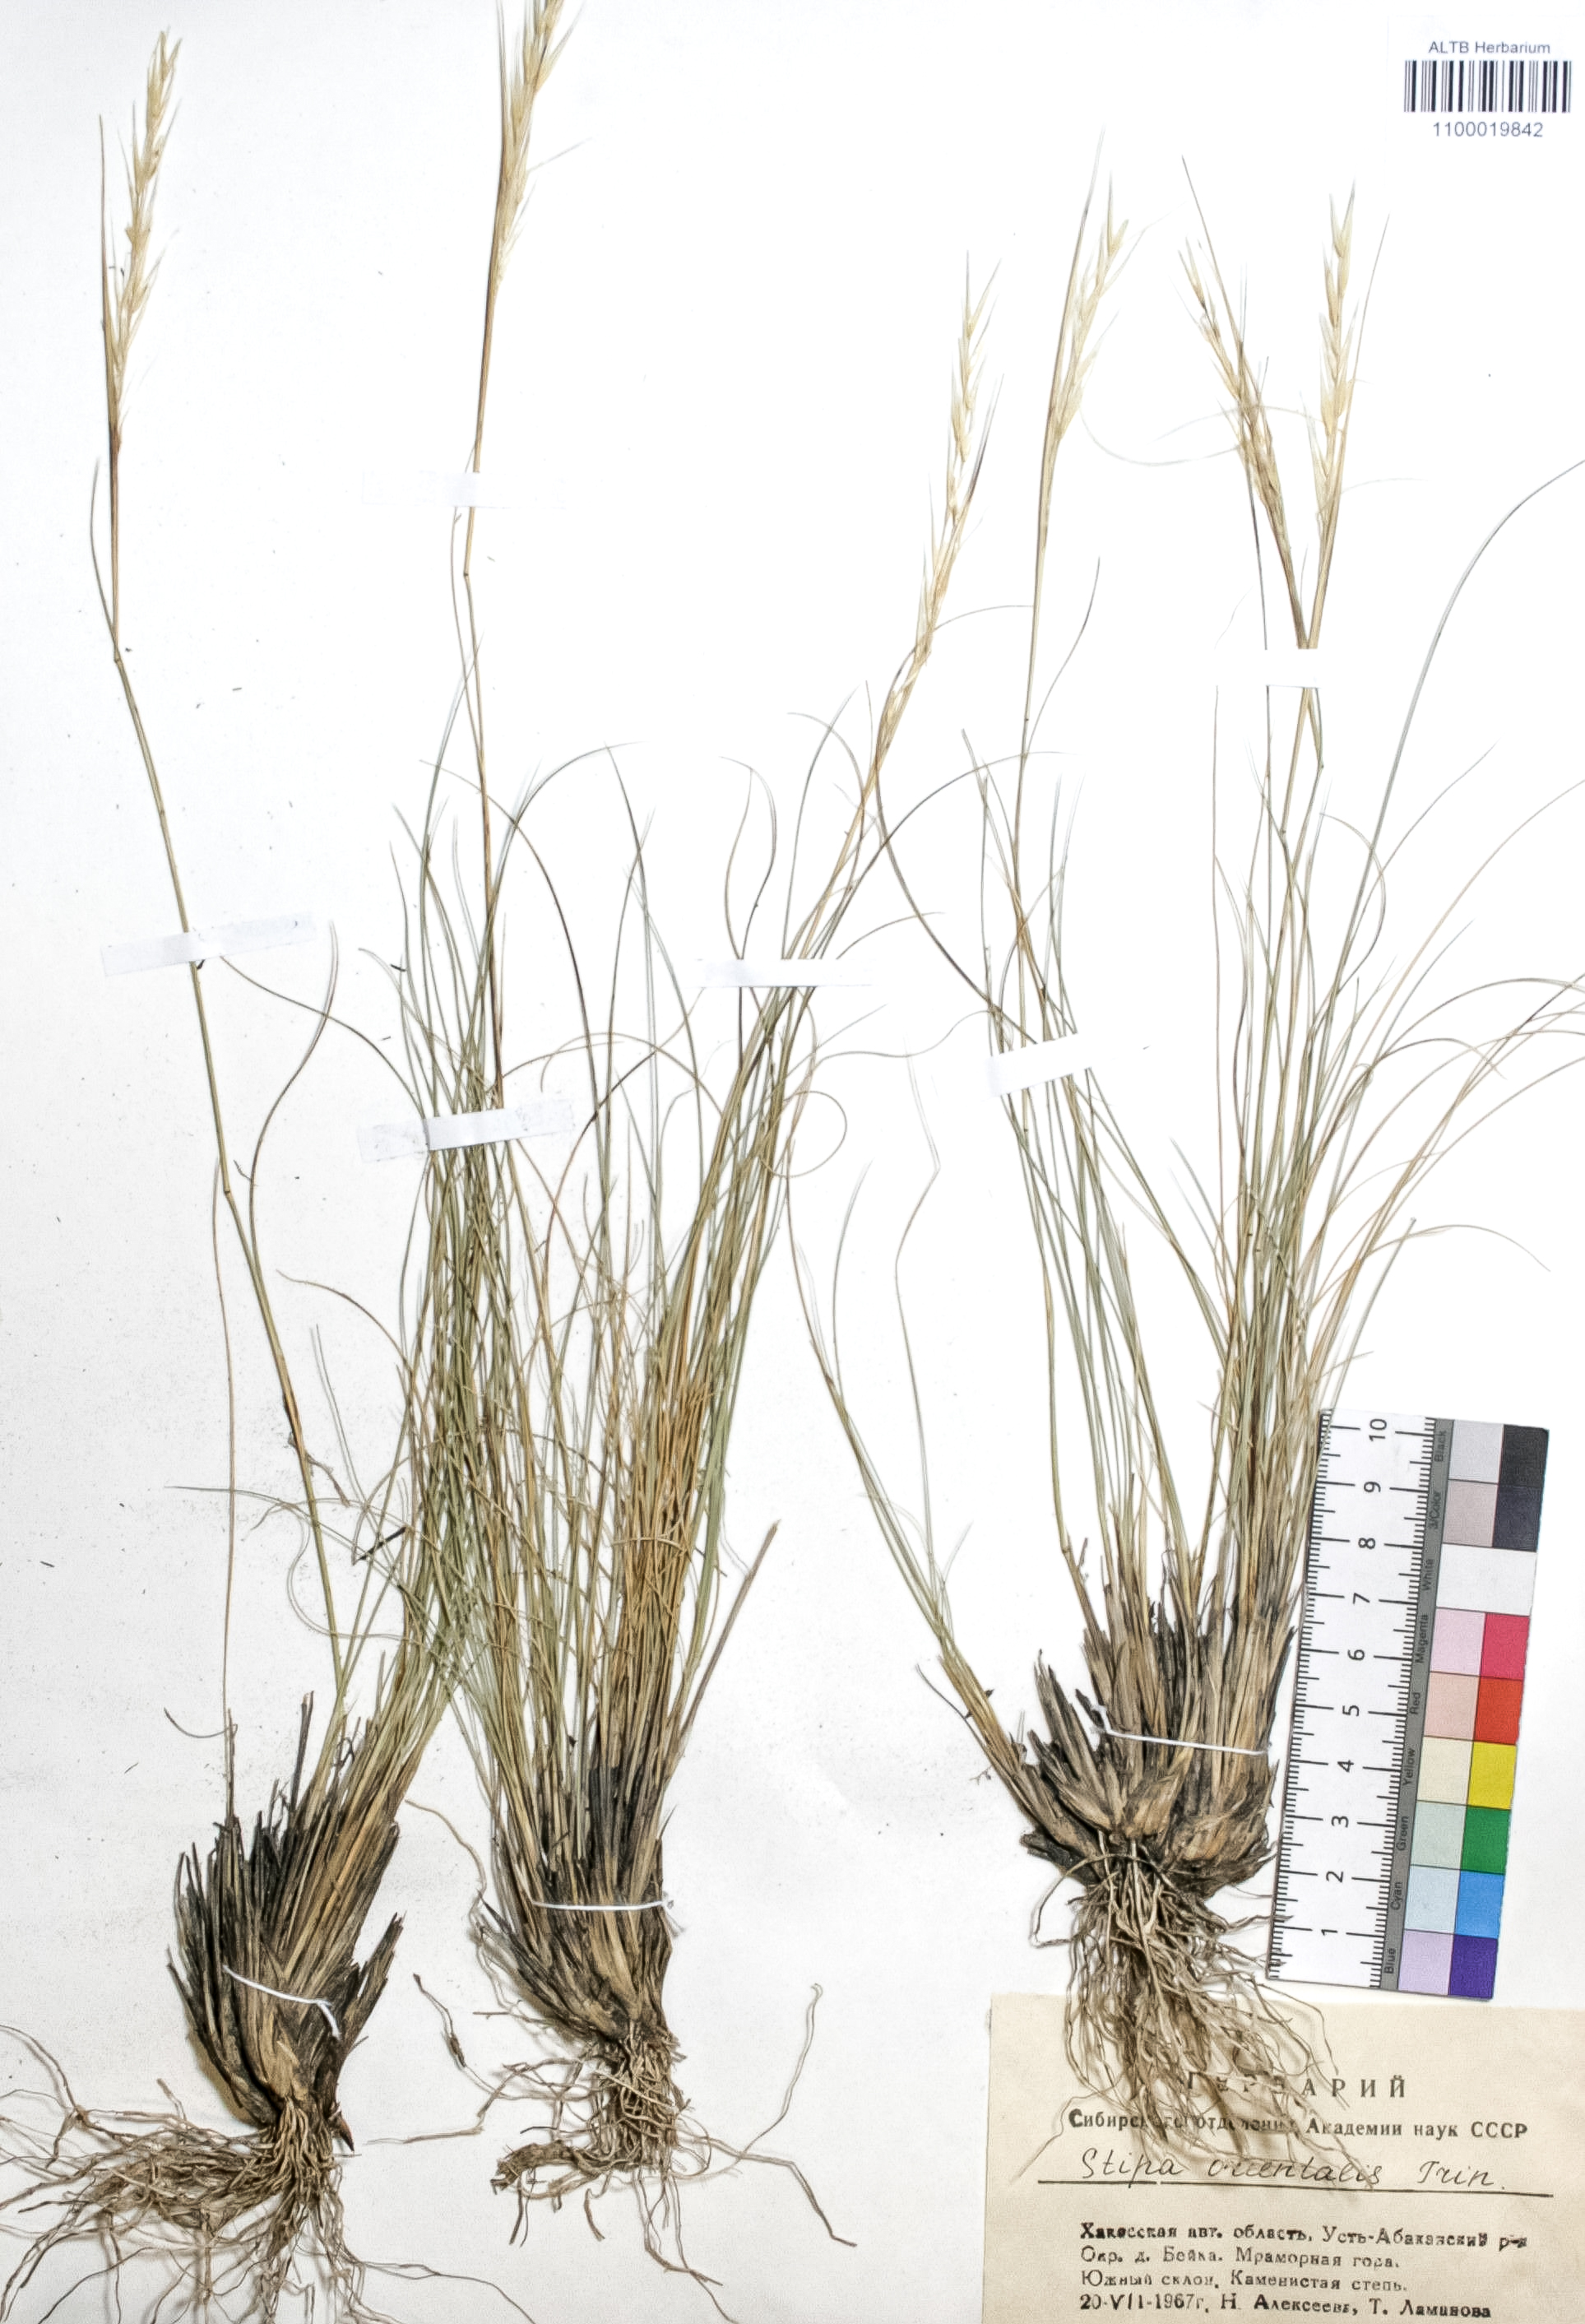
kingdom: Plantae
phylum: Tracheophyta
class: Liliopsida
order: Poales
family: Poaceae
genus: Stipa
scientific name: Stipa orientalis
